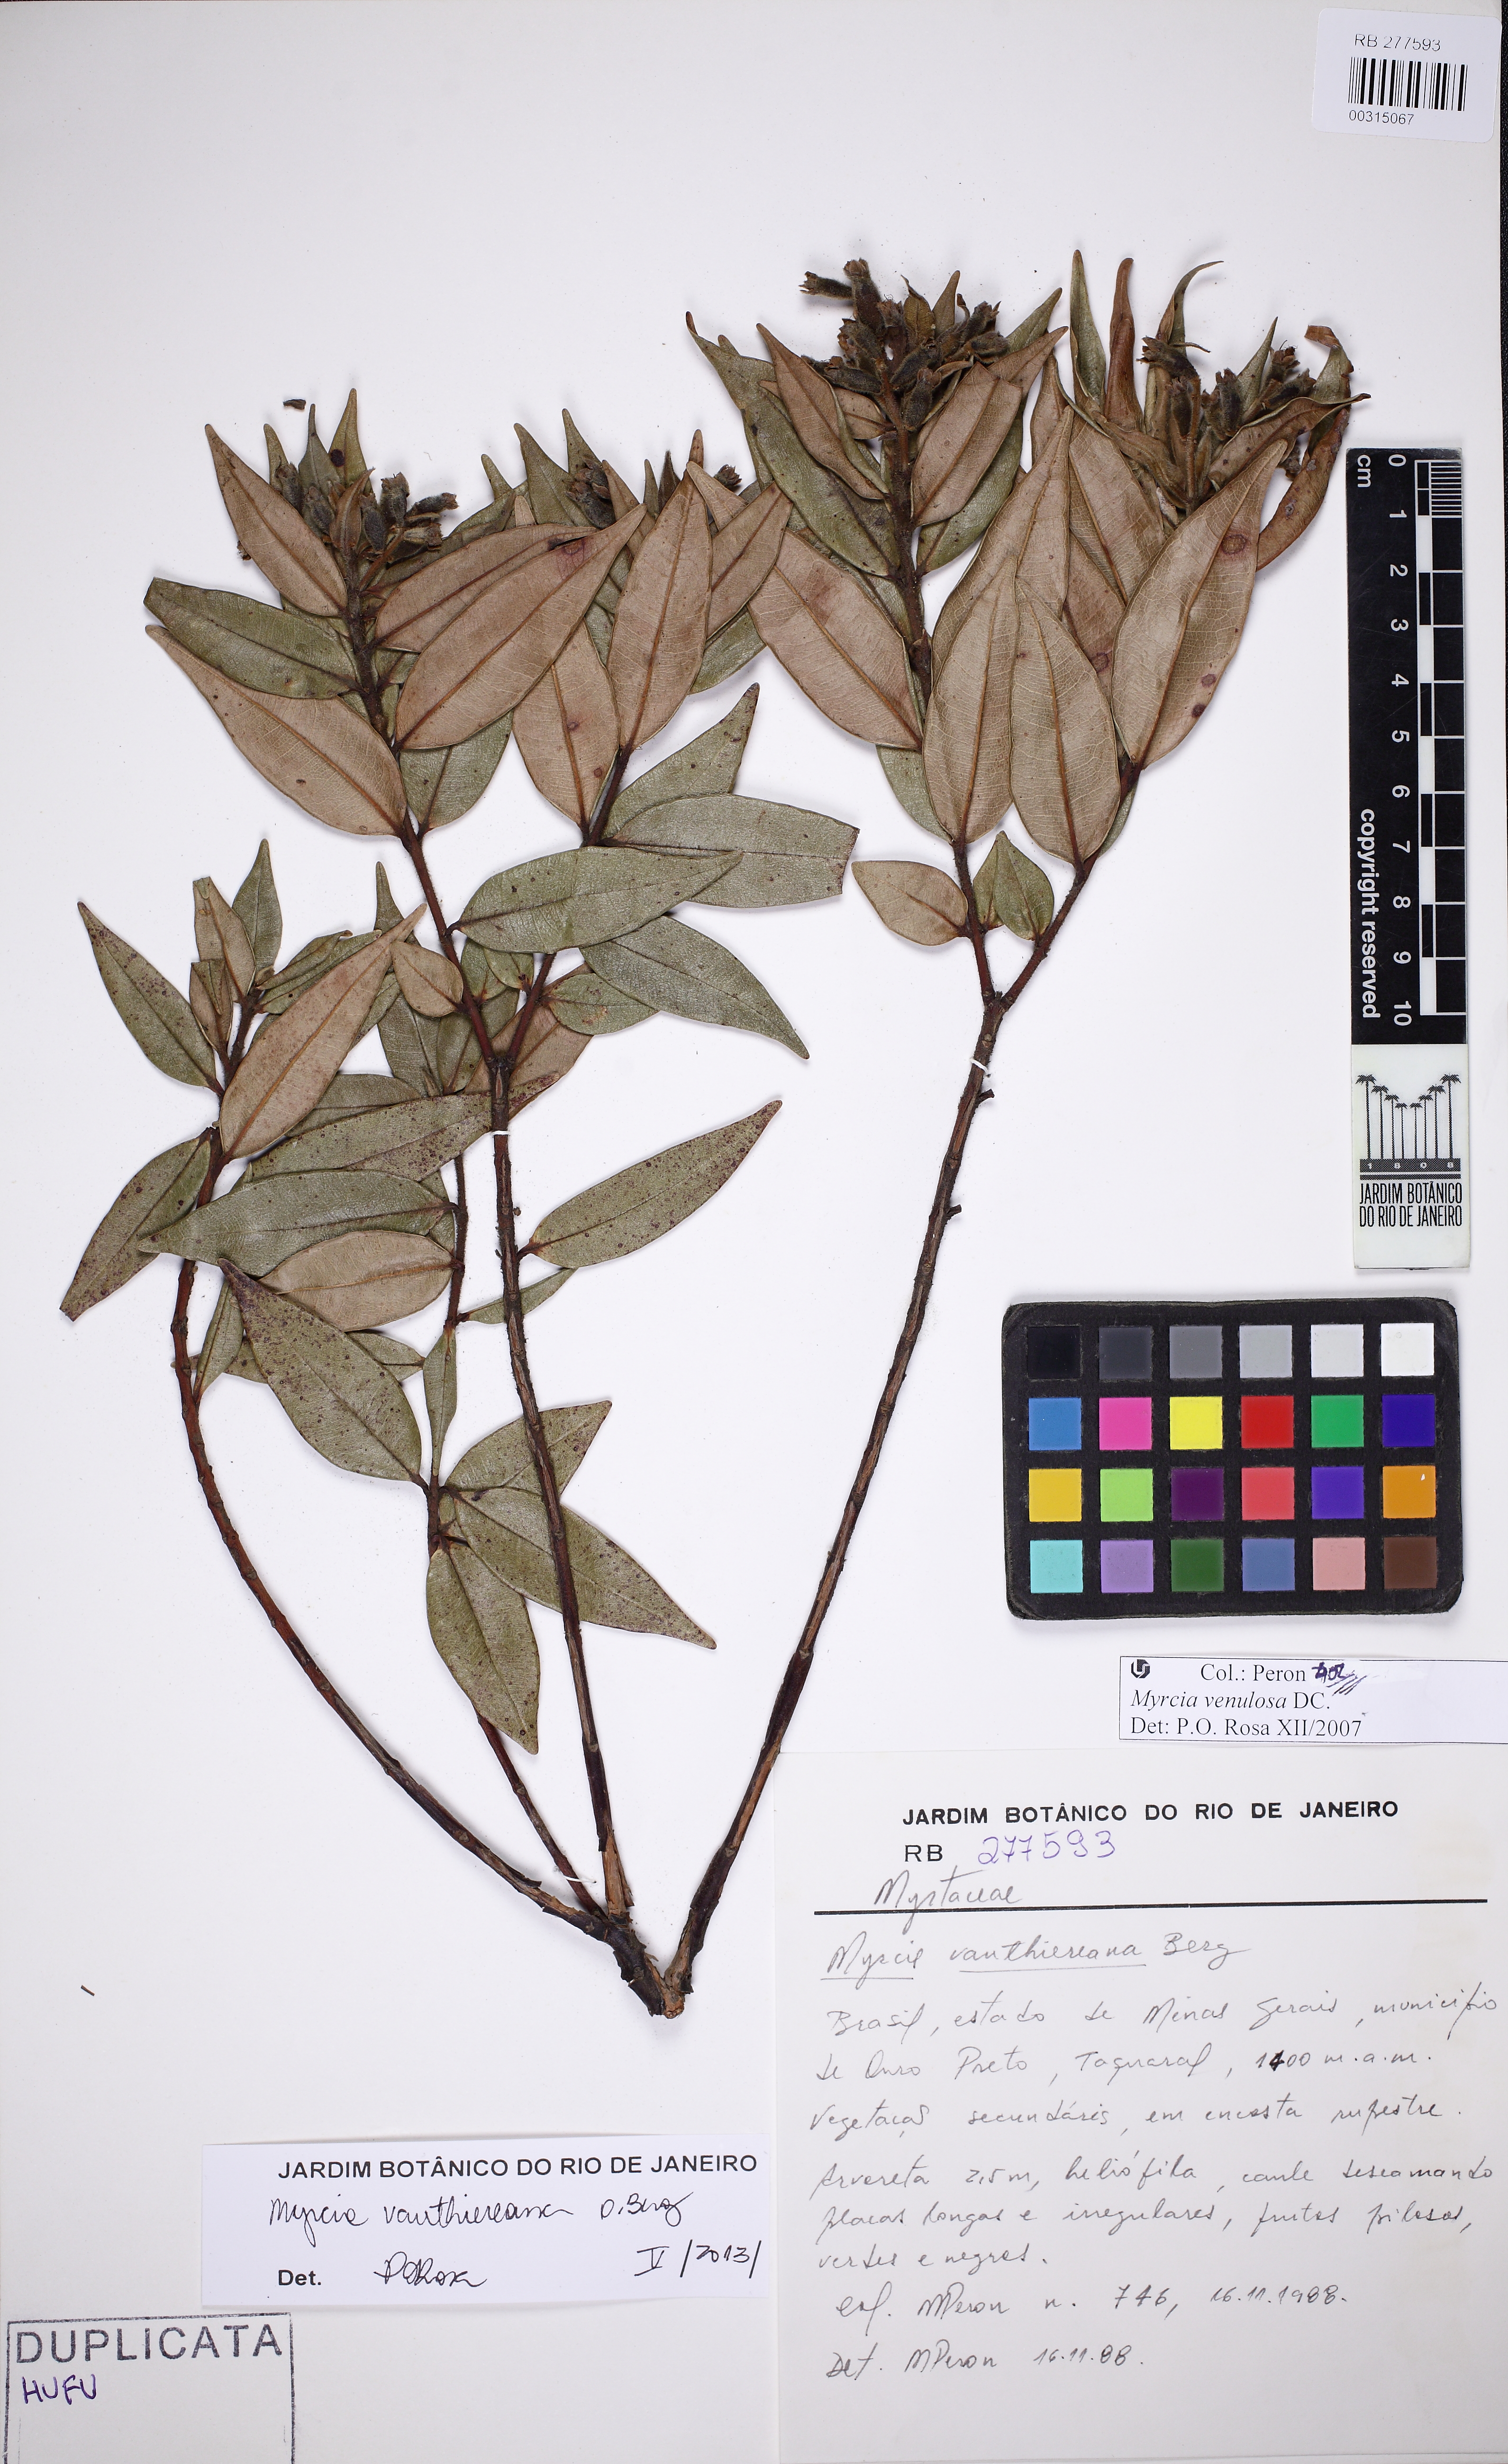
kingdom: Plantae
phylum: Tracheophyta
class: Magnoliopsida
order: Myrtales
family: Myrtaceae
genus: Myrcia
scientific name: Myrcia vauthiereana
